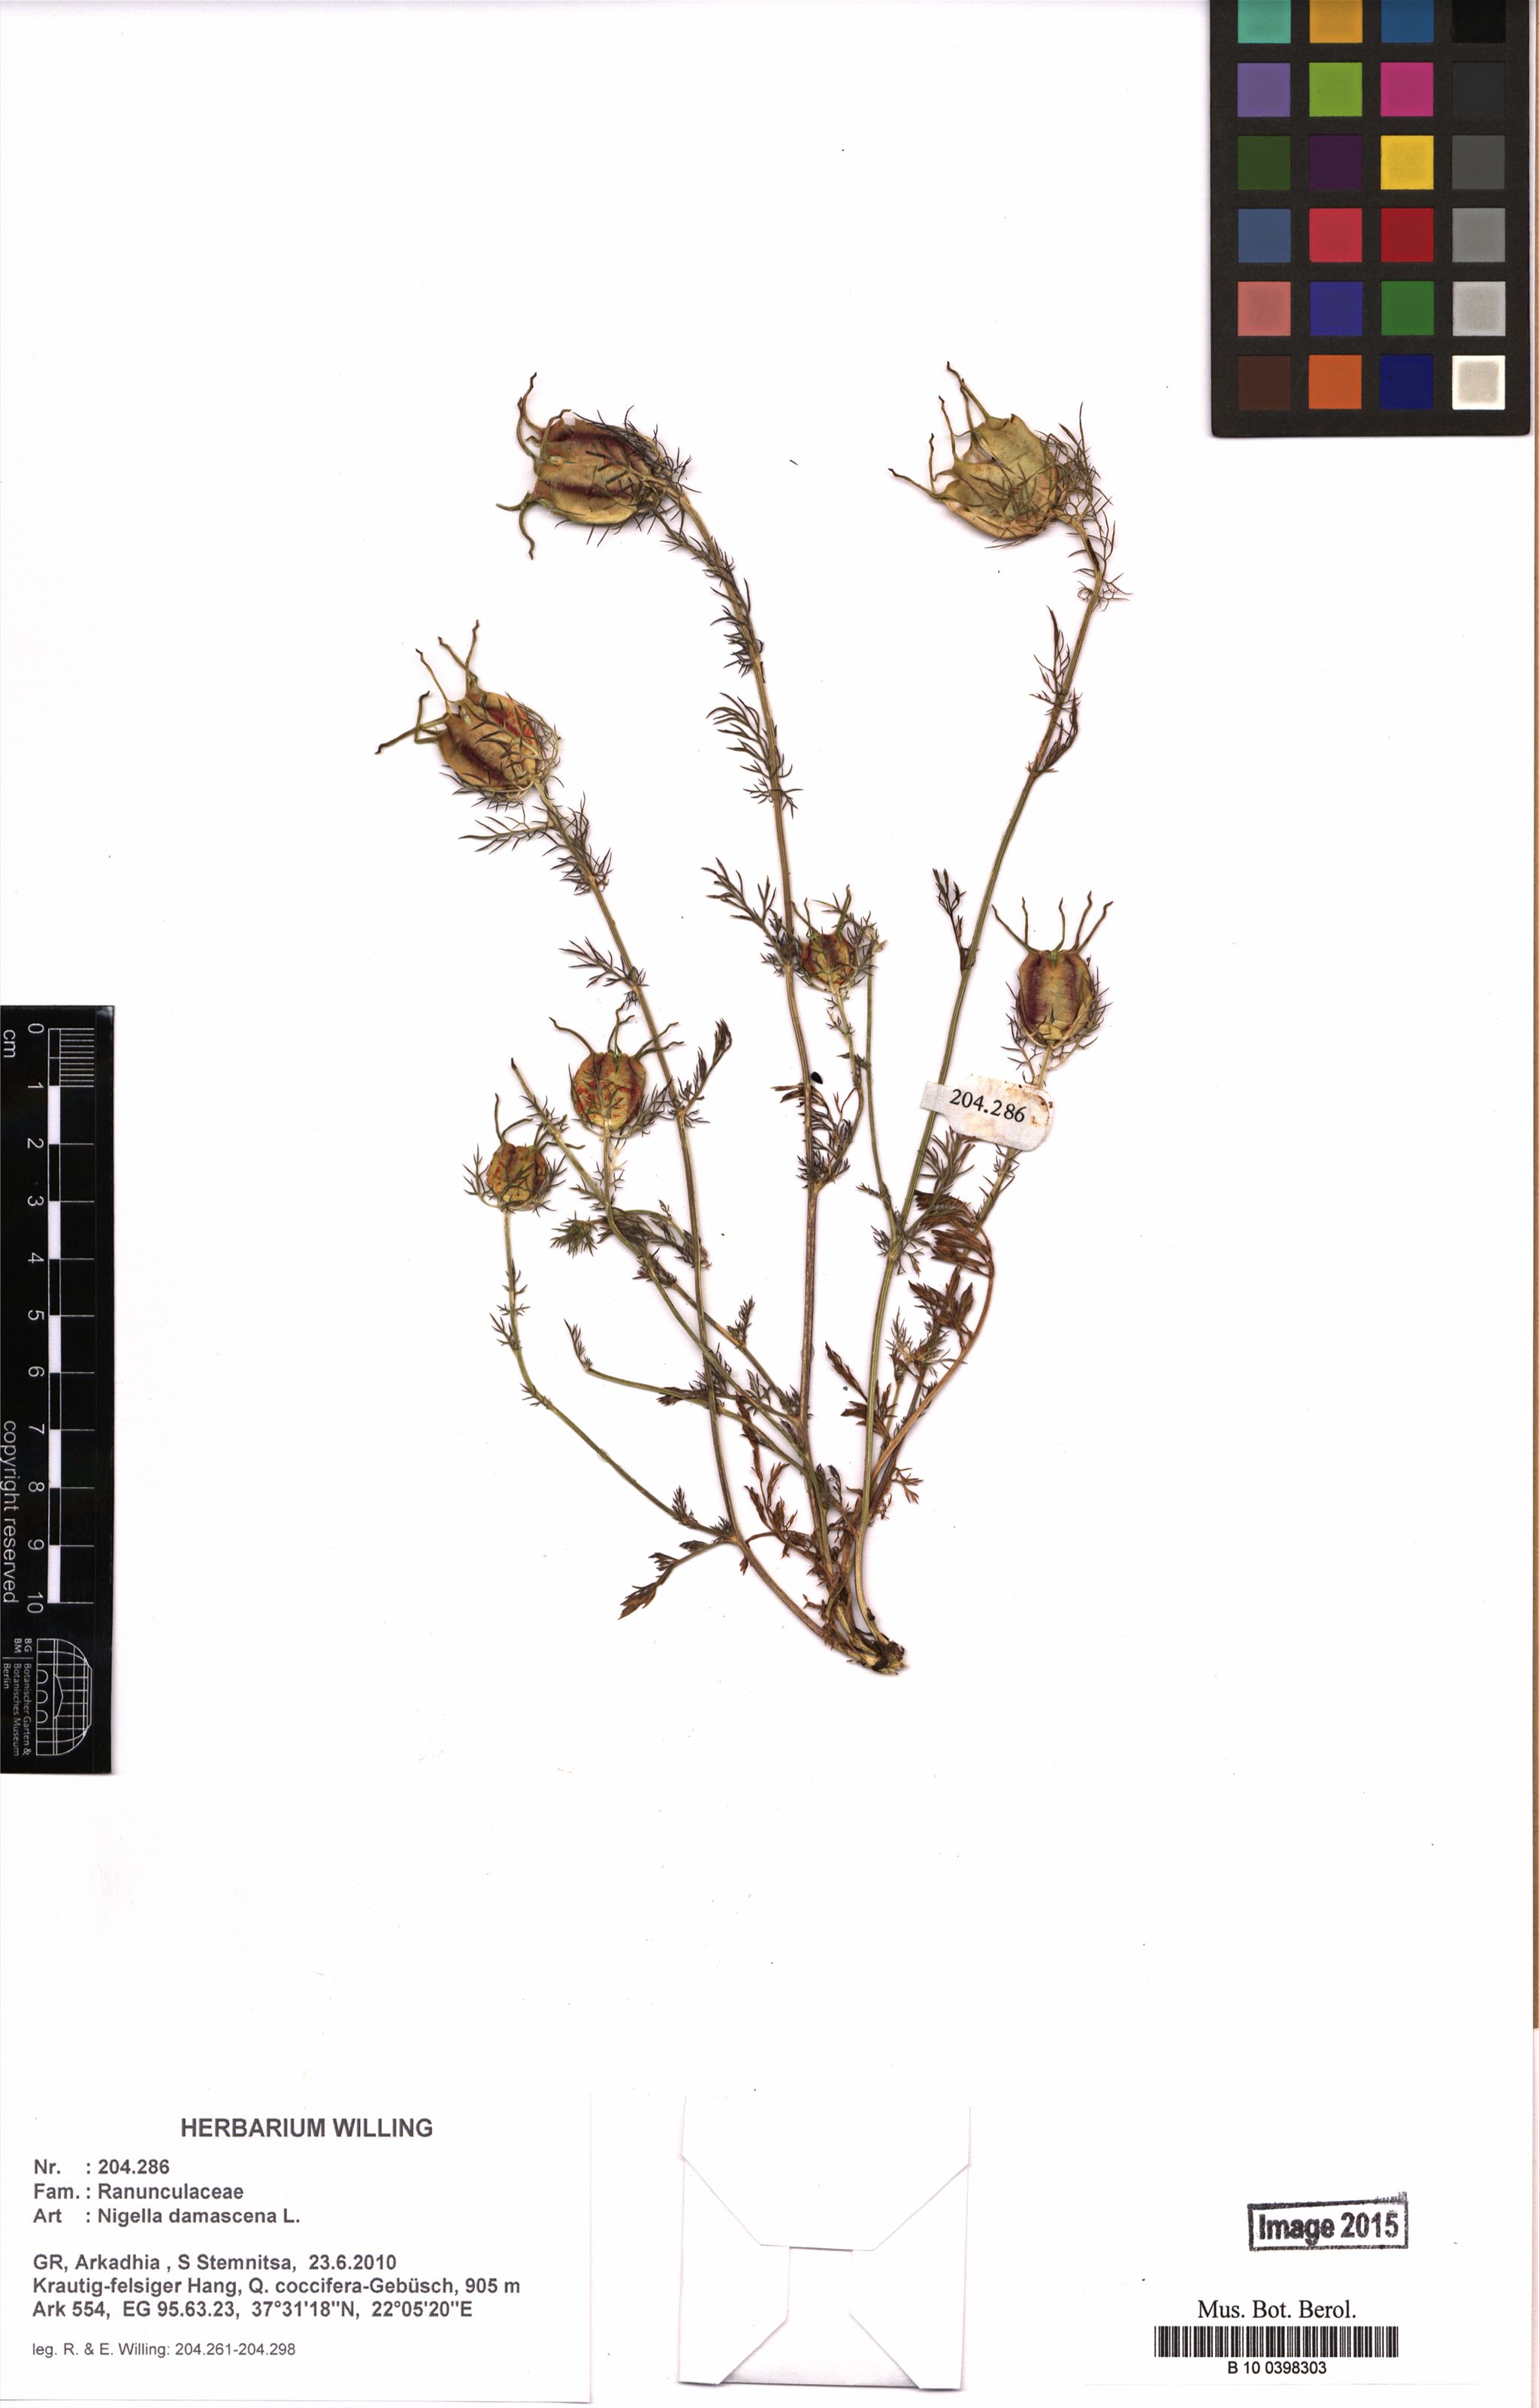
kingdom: Plantae
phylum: Tracheophyta
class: Magnoliopsida
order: Ranunculales
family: Ranunculaceae
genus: Nigella
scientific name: Nigella damascena
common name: Love-in-a-mist
